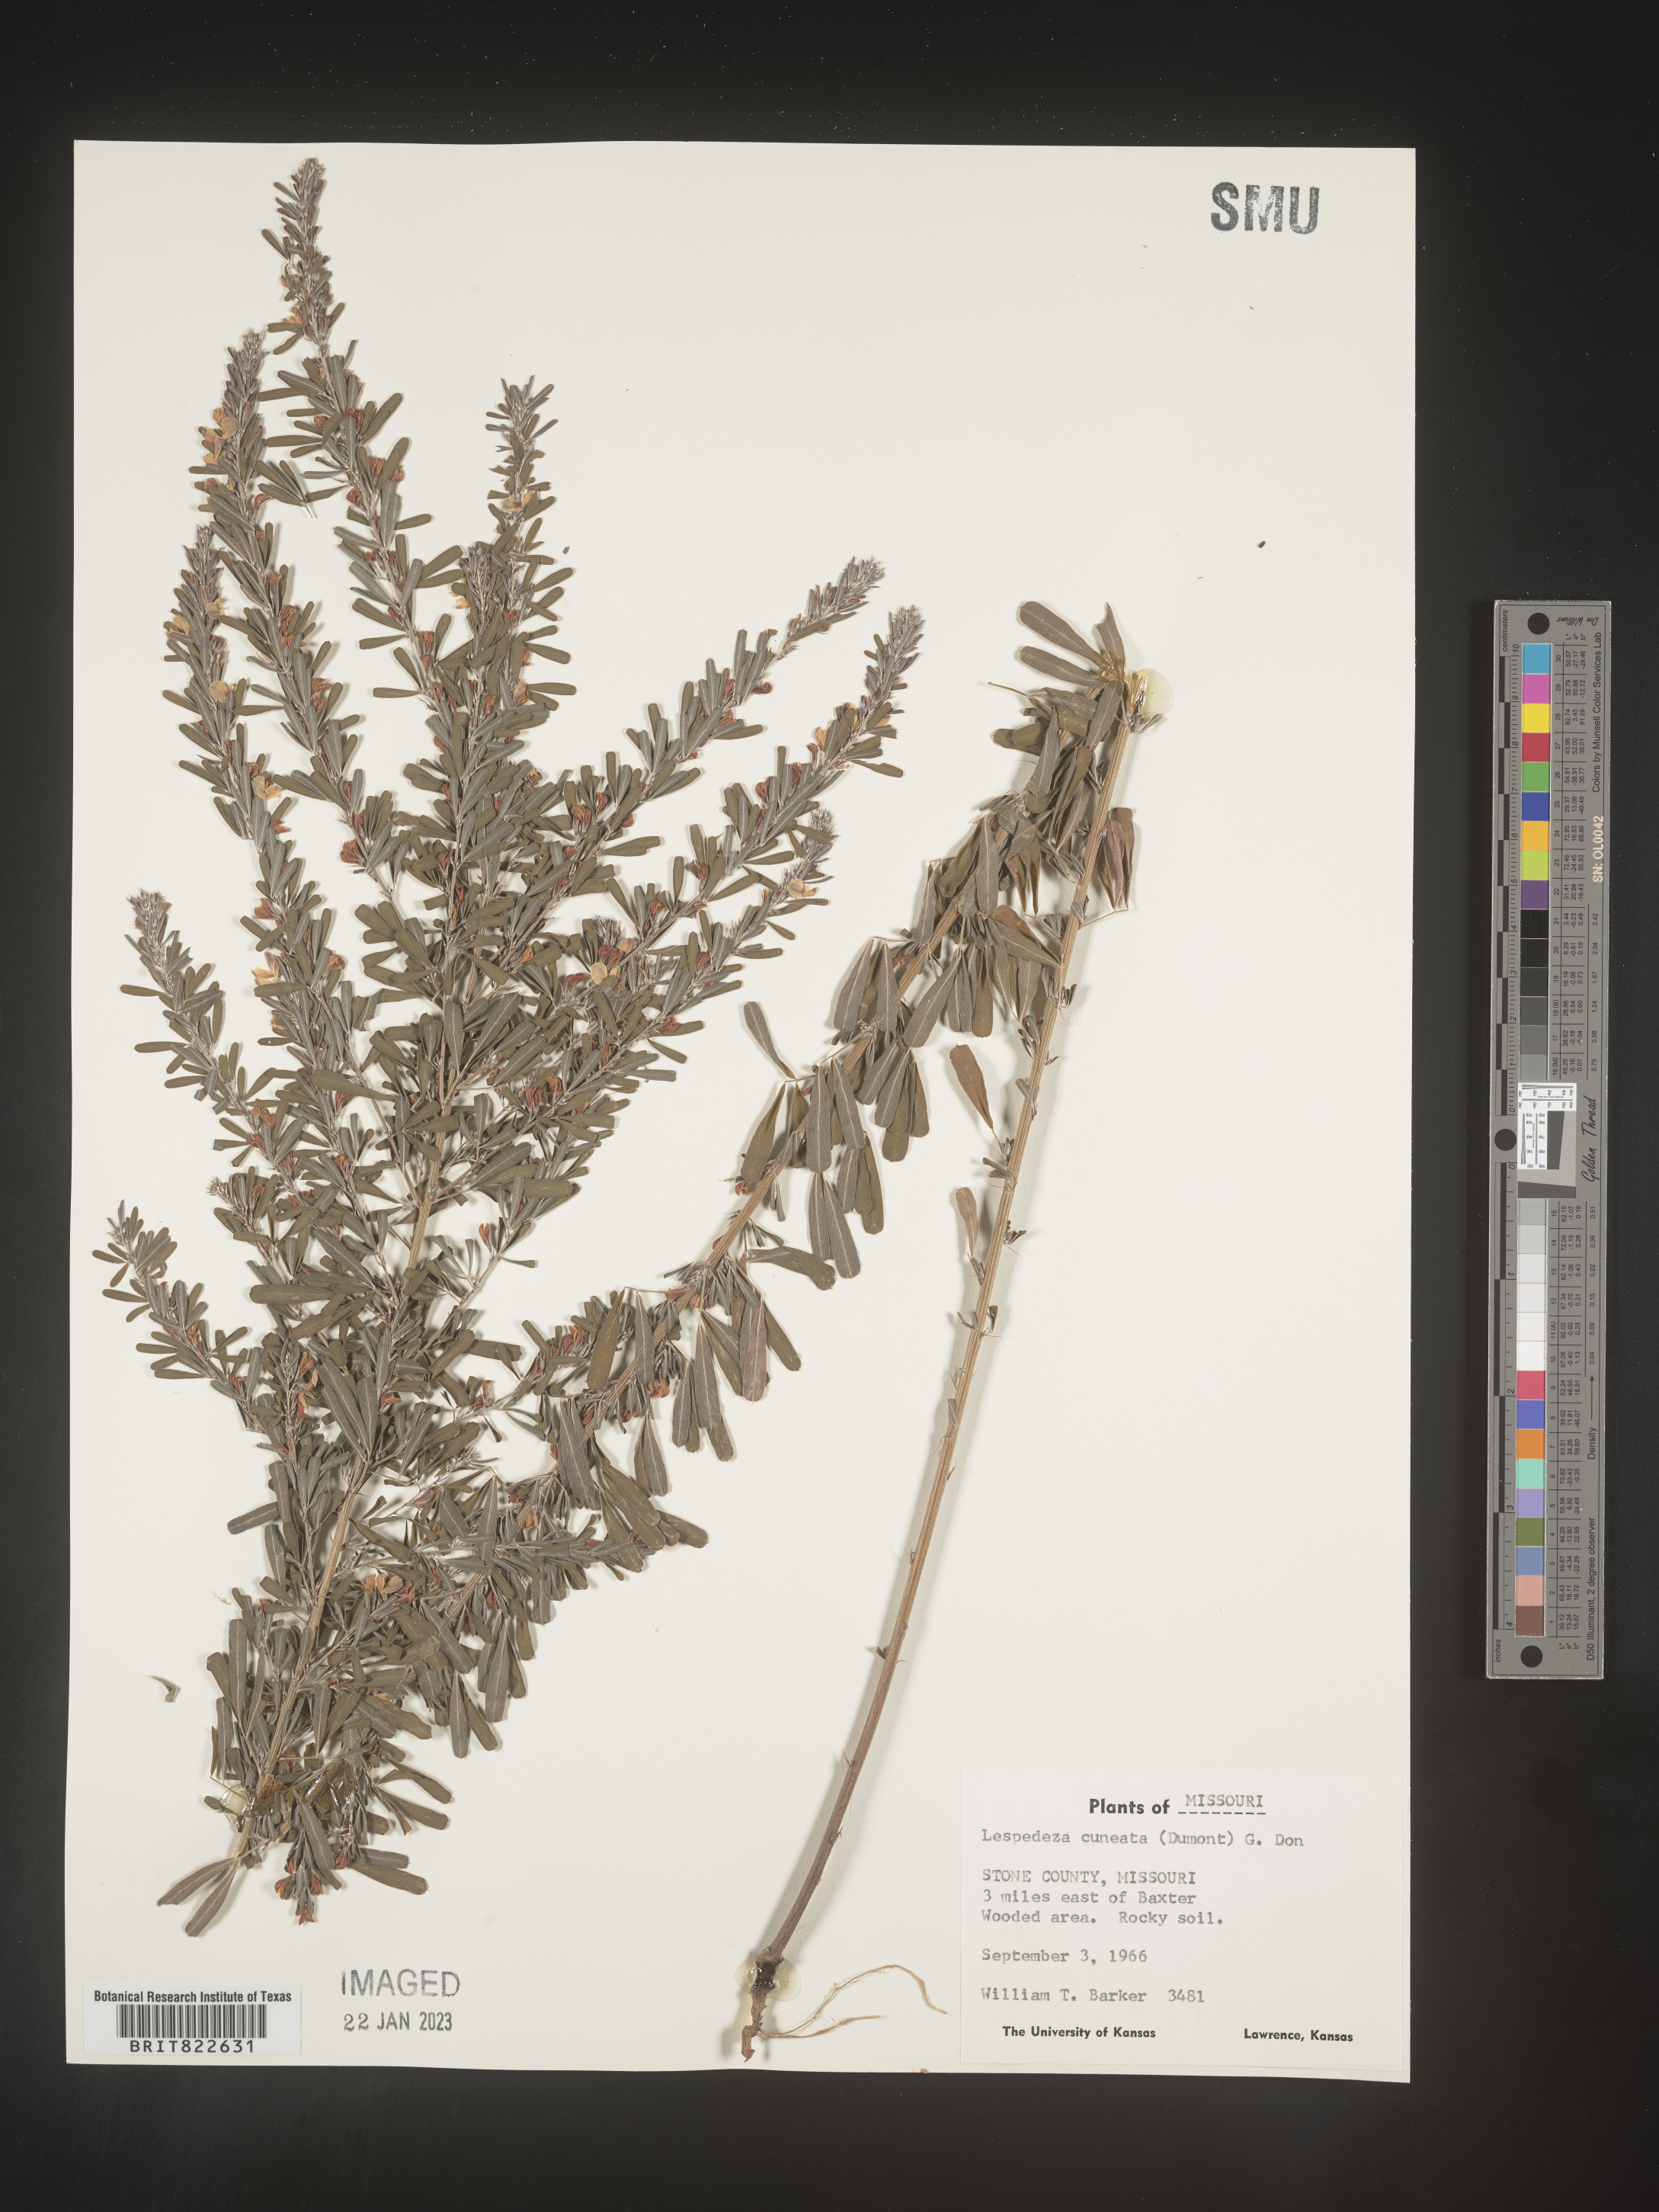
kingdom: Plantae
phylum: Tracheophyta
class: Magnoliopsida
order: Fabales
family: Fabaceae
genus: Lespedeza
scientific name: Lespedeza cuneata
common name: Chinese bush-clover
